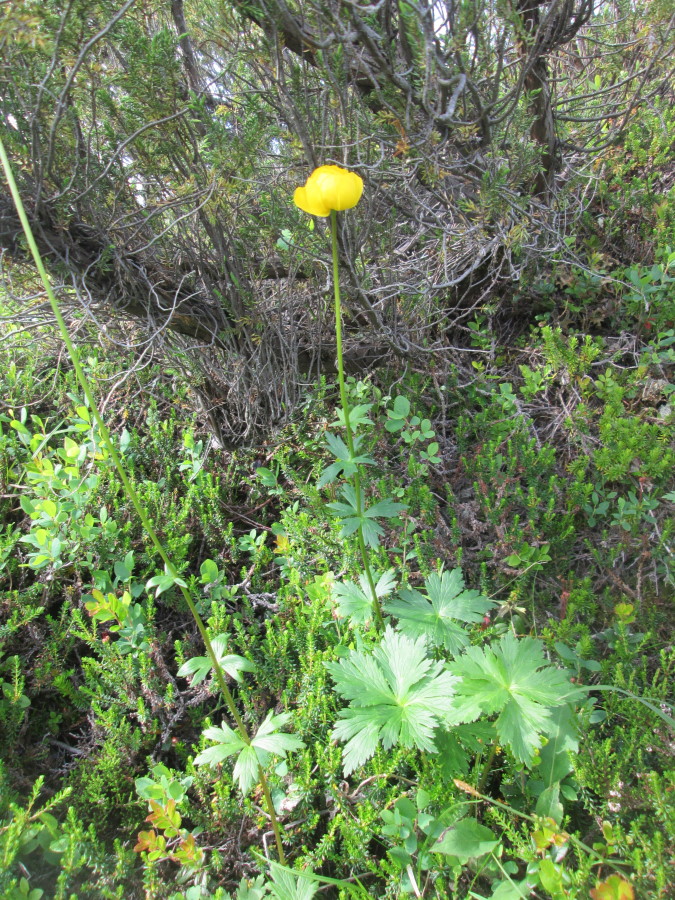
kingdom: Plantae
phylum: Tracheophyta
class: Magnoliopsida
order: Ranunculales
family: Ranunculaceae
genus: Trollius
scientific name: Trollius europaeus
